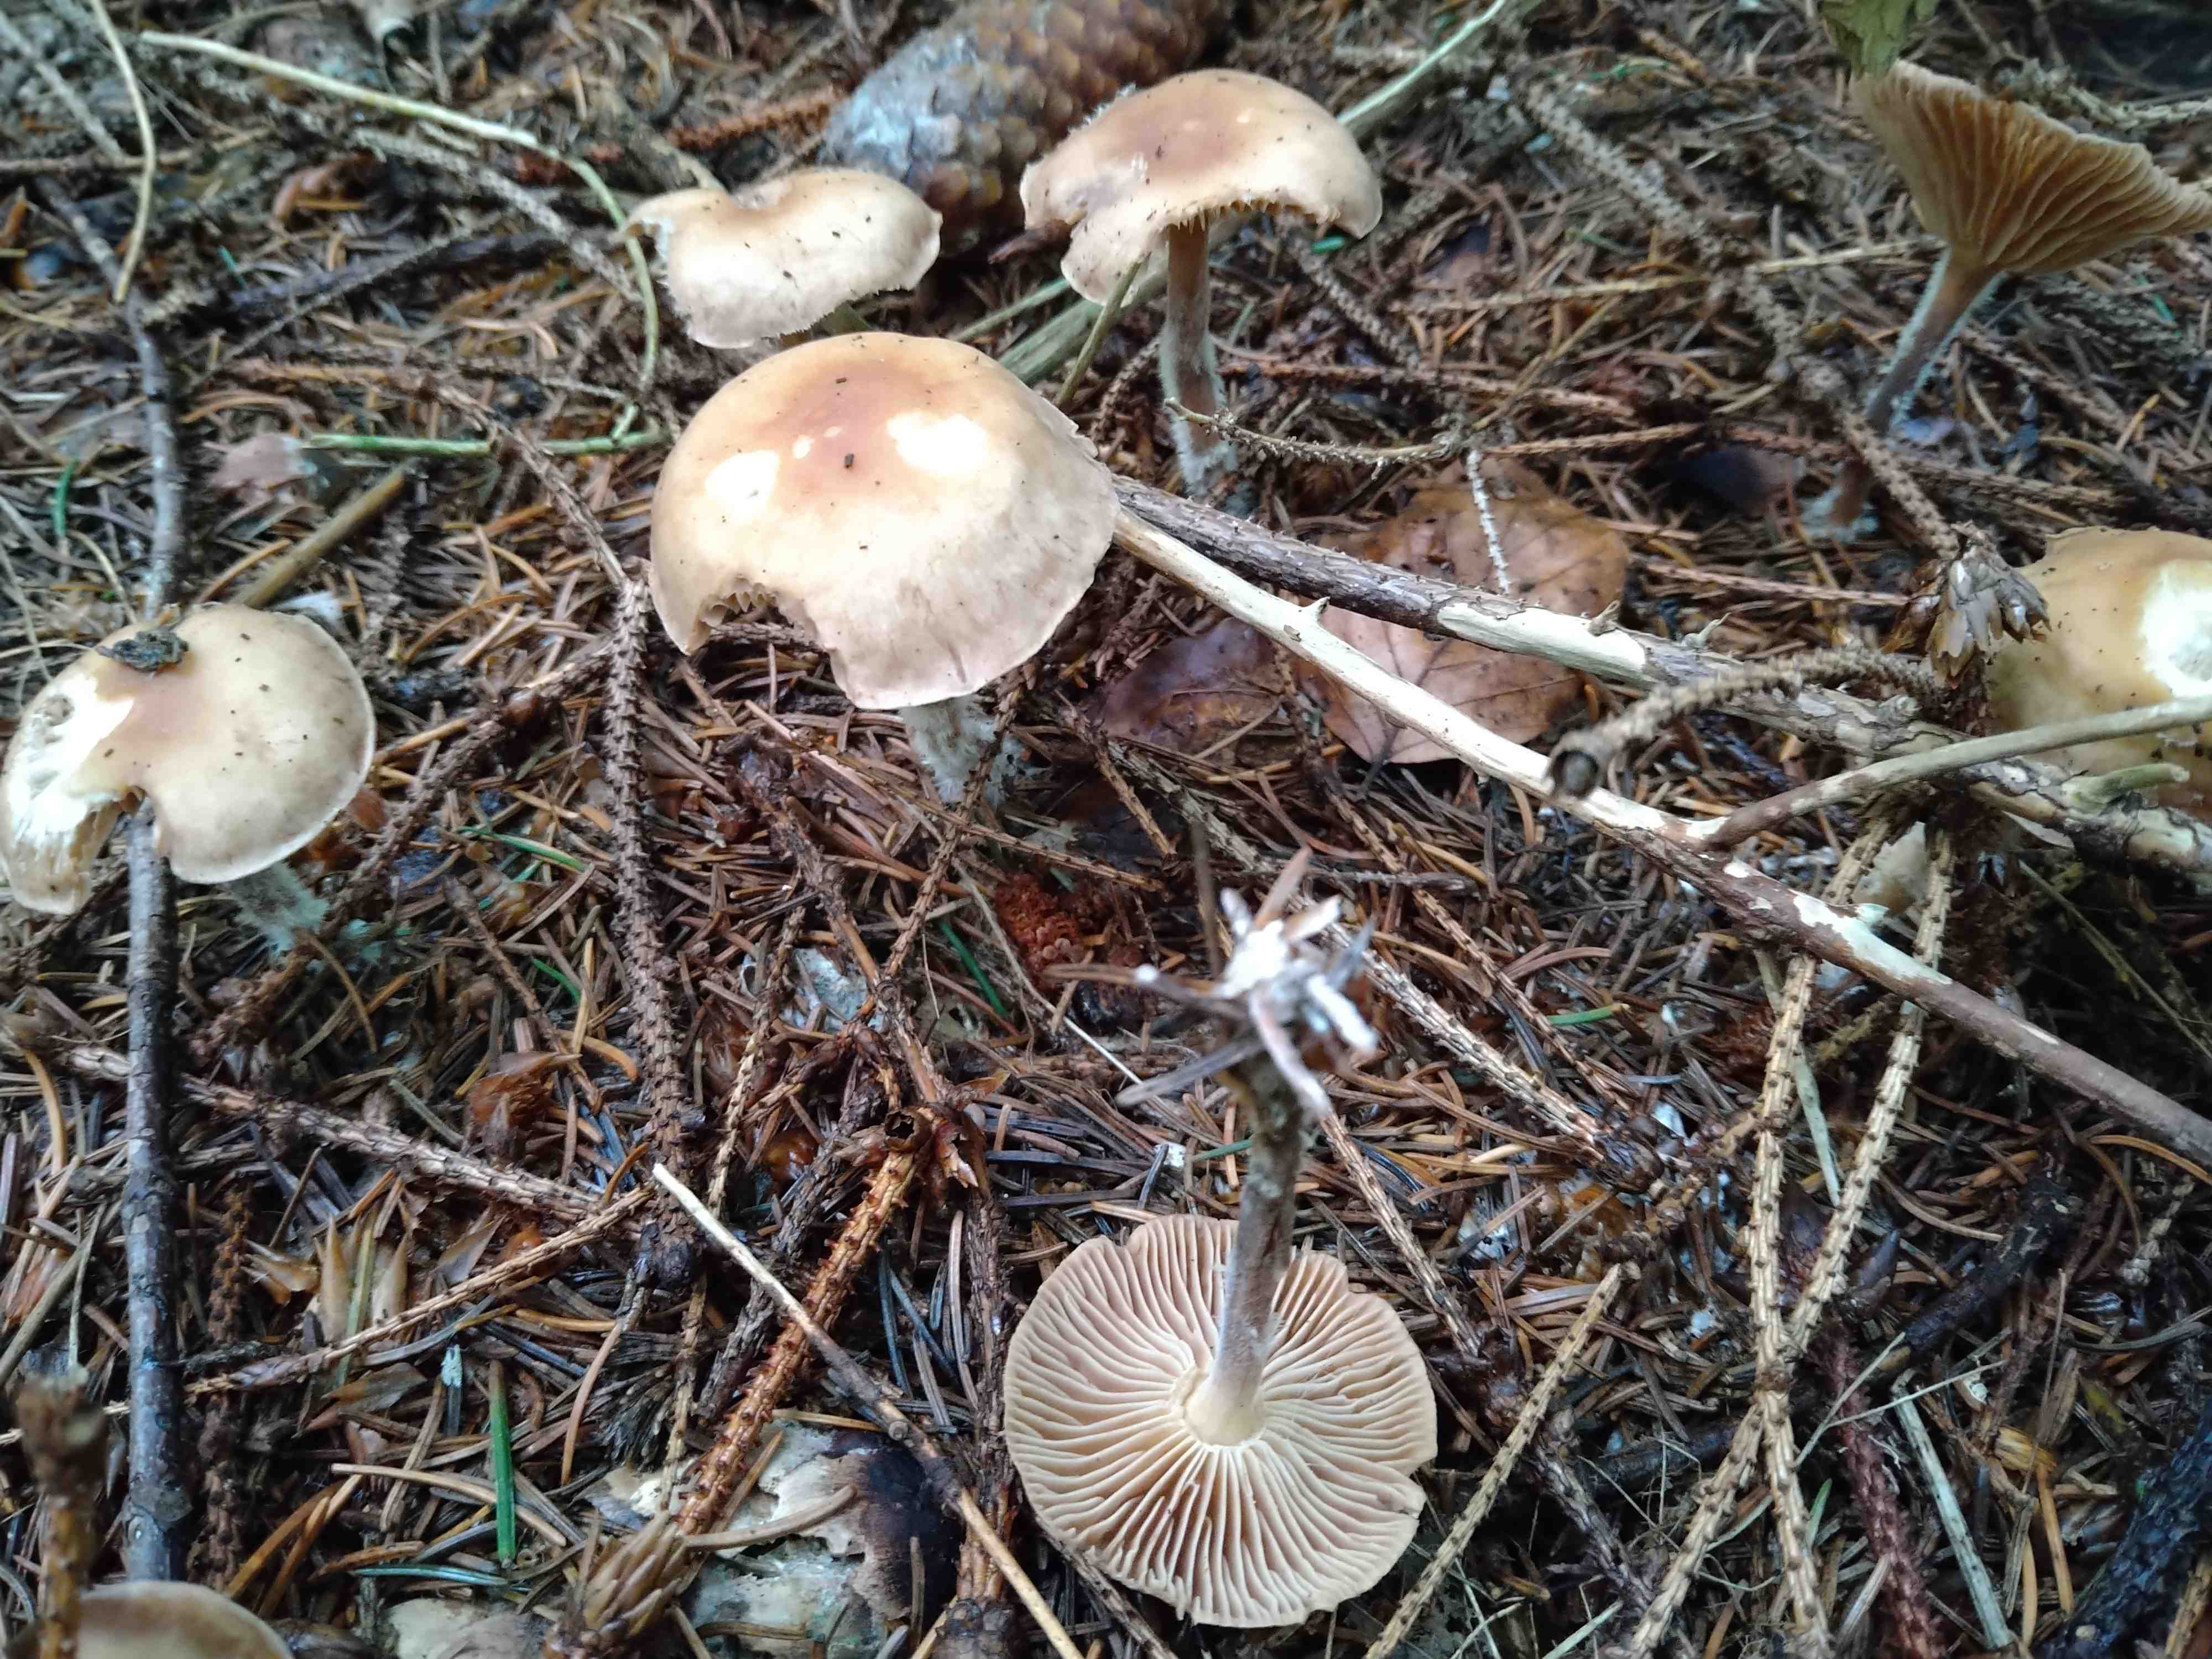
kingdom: Fungi
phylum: Basidiomycota
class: Agaricomycetes
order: Agaricales
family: Omphalotaceae
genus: Collybiopsis
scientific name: Collybiopsis peronata
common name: bestøvlet fladhat
